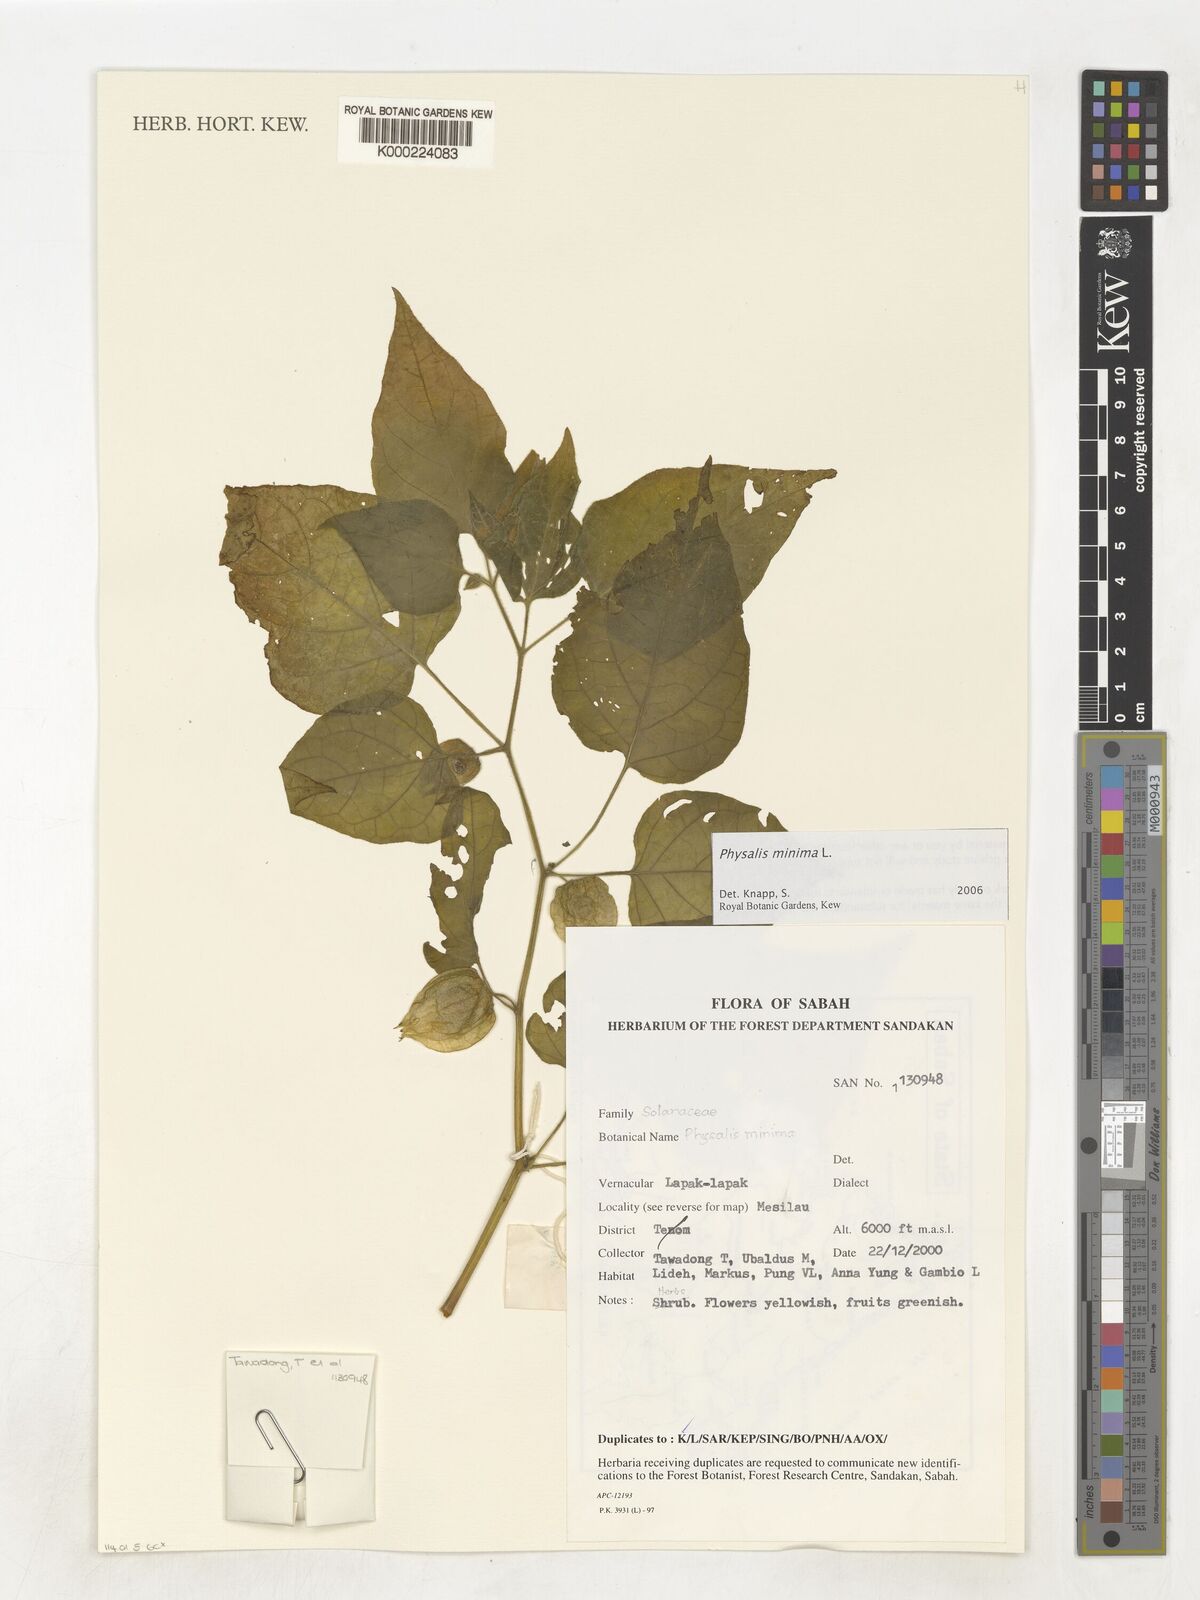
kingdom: Plantae
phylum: Tracheophyta
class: Magnoliopsida
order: Solanales
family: Solanaceae
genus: Physalis
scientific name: Physalis angulata
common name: Angular winter-cherry
